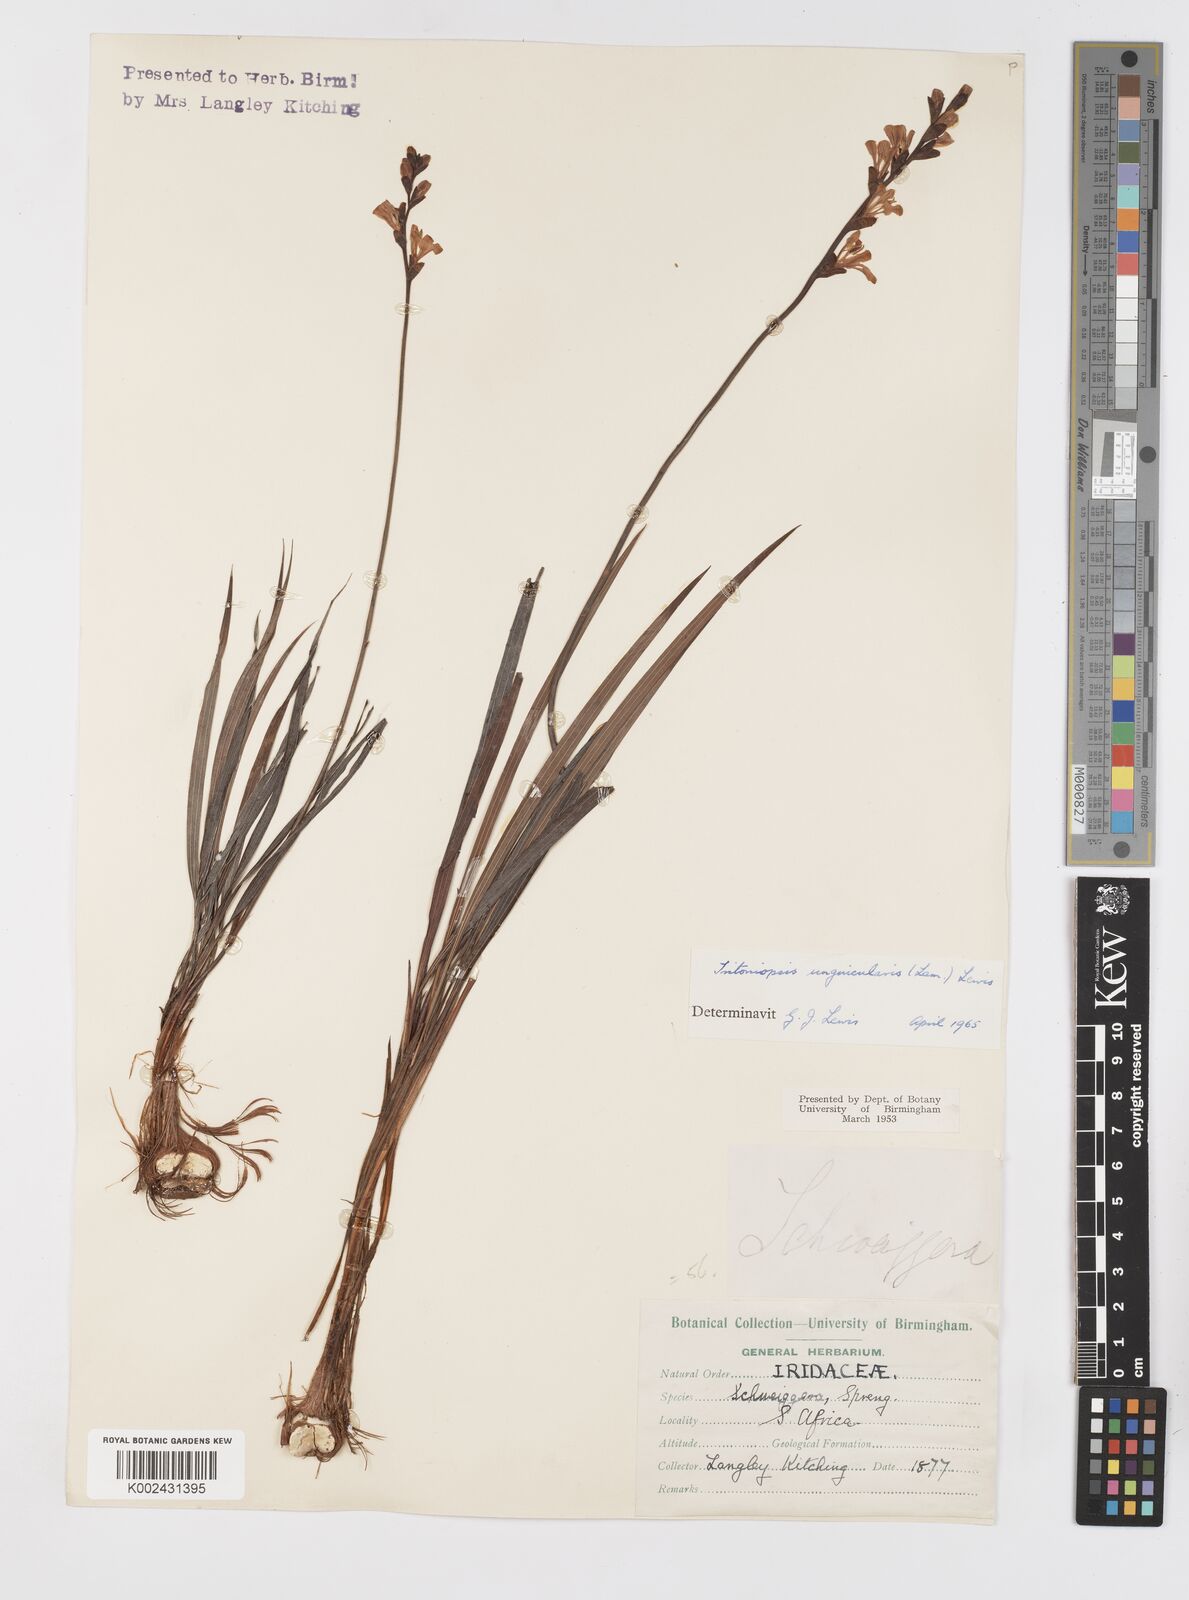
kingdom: Plantae
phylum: Tracheophyta
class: Liliopsida
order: Asparagales
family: Iridaceae
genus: Tritoniopsis
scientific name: Tritoniopsis unguicularis
